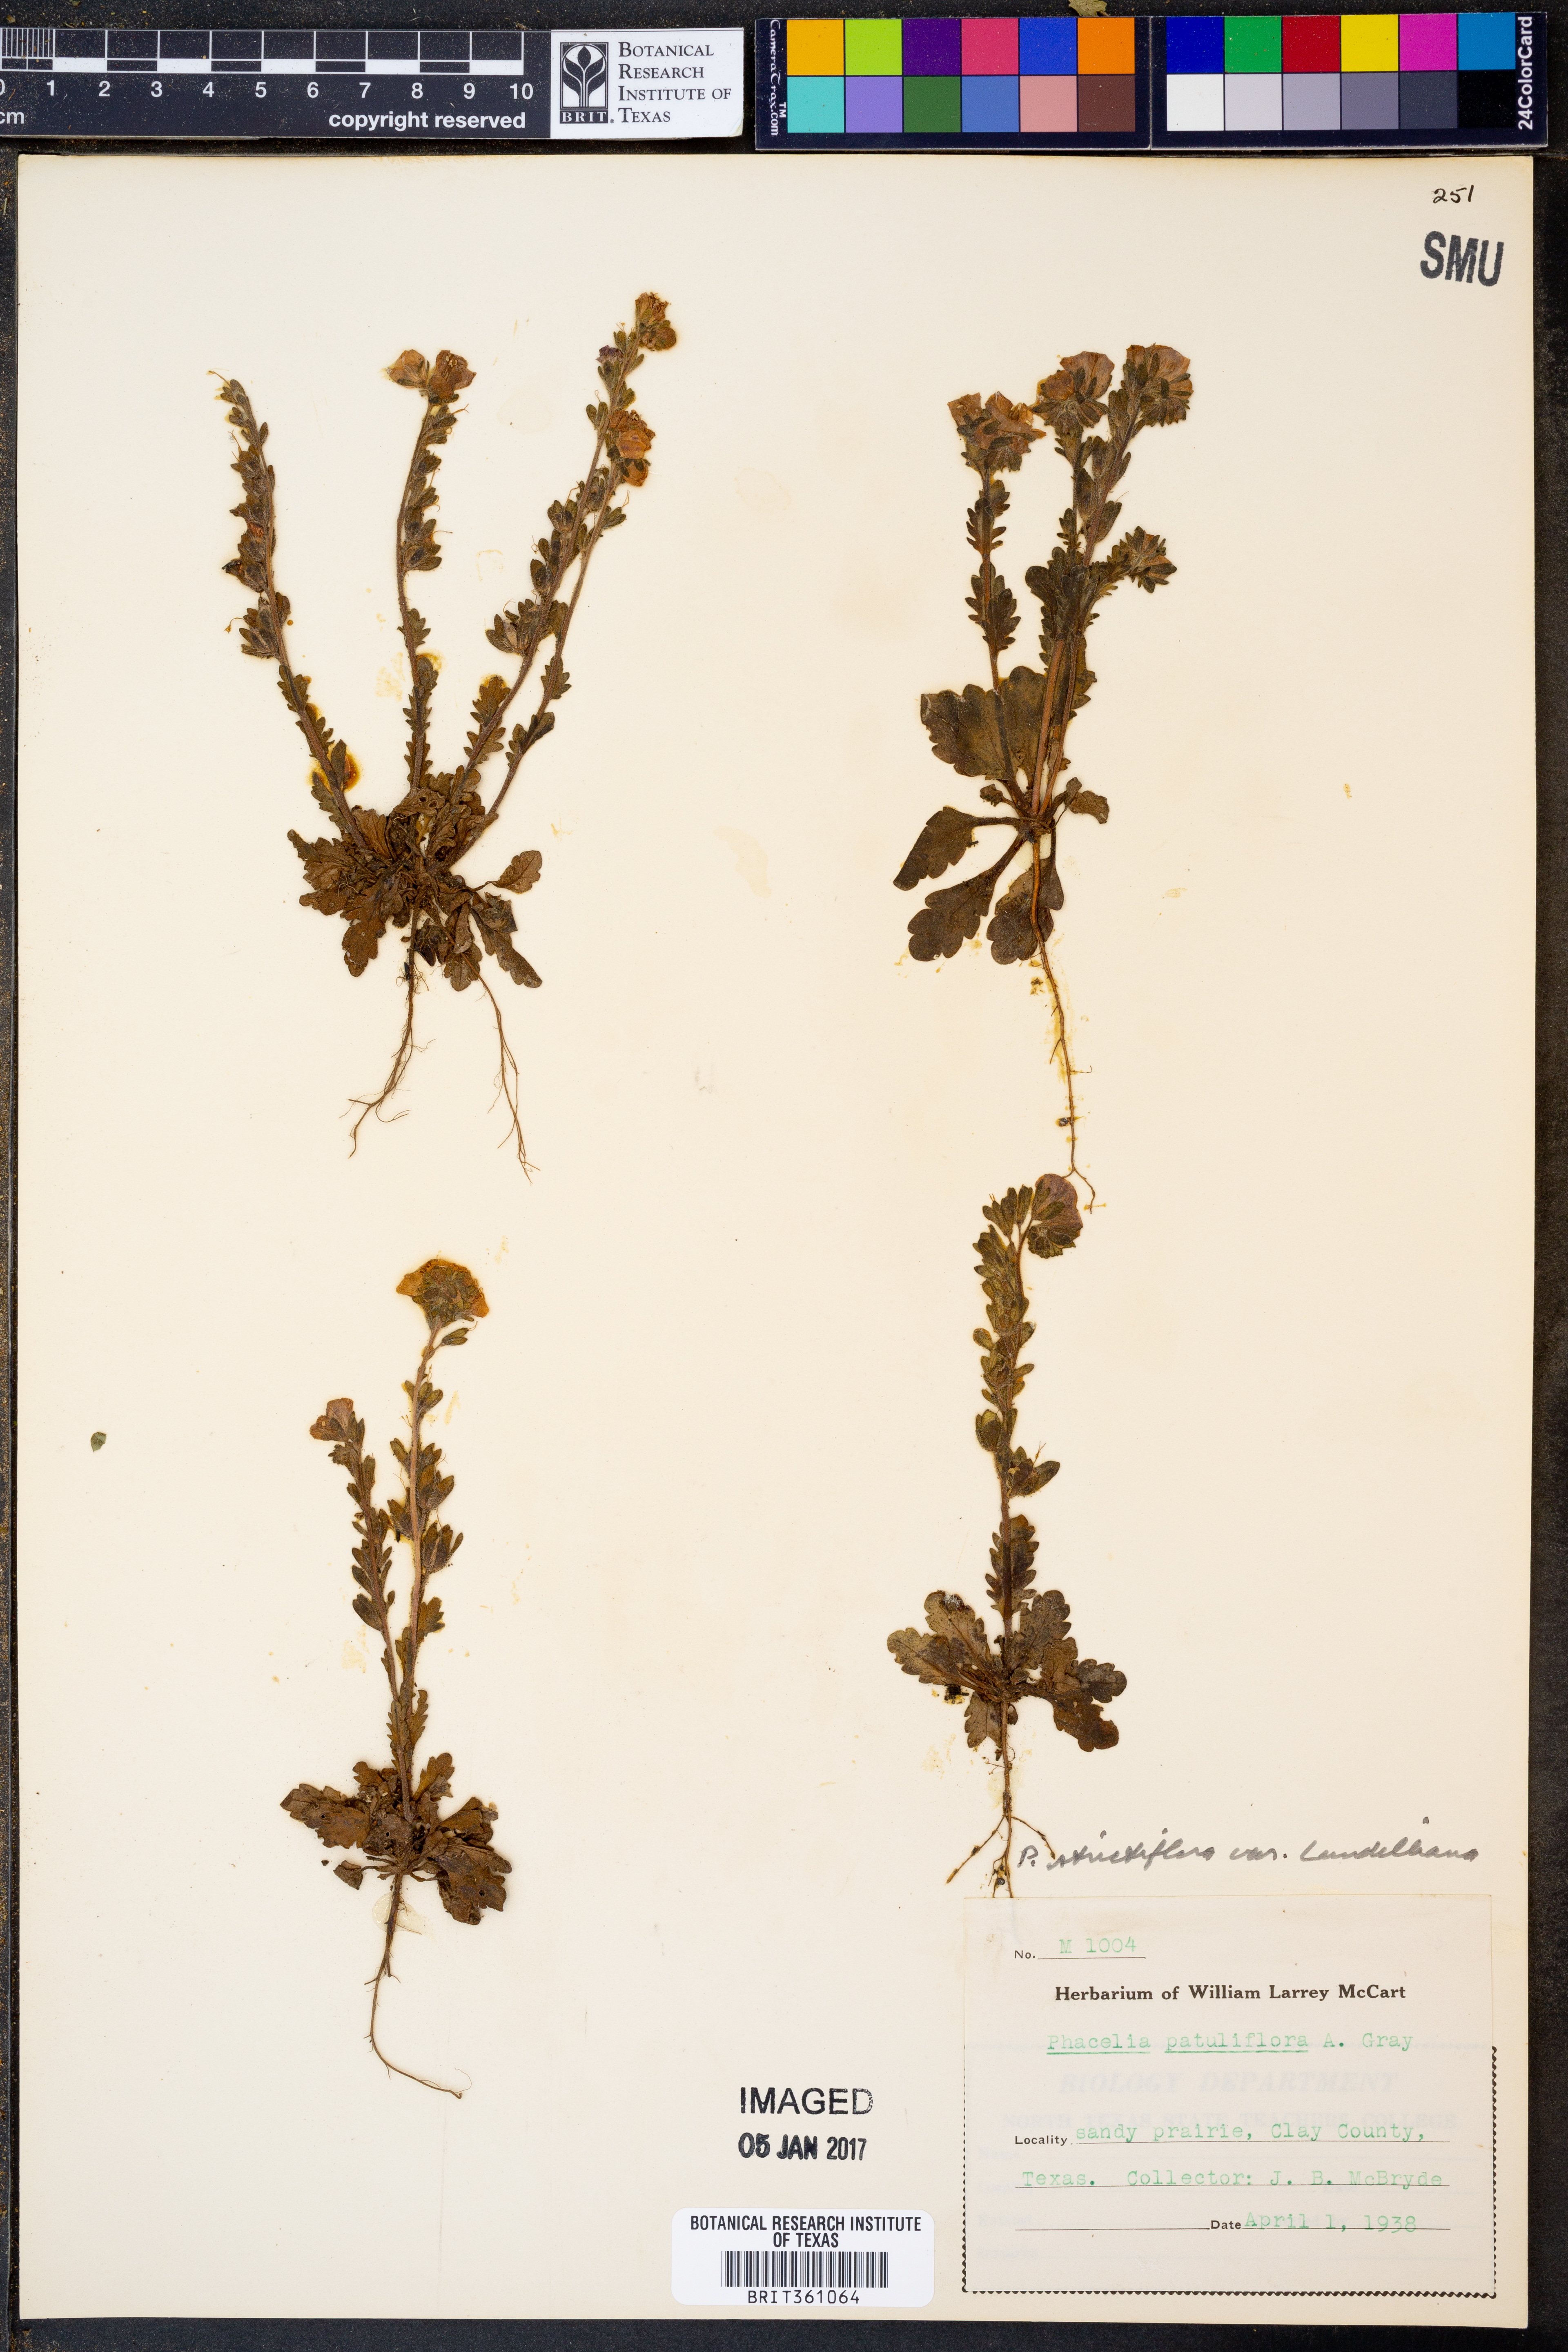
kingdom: Plantae
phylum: Tracheophyta
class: Magnoliopsida
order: Boraginales
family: Hydrophyllaceae
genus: Phacelia
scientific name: Phacelia strictiflora
